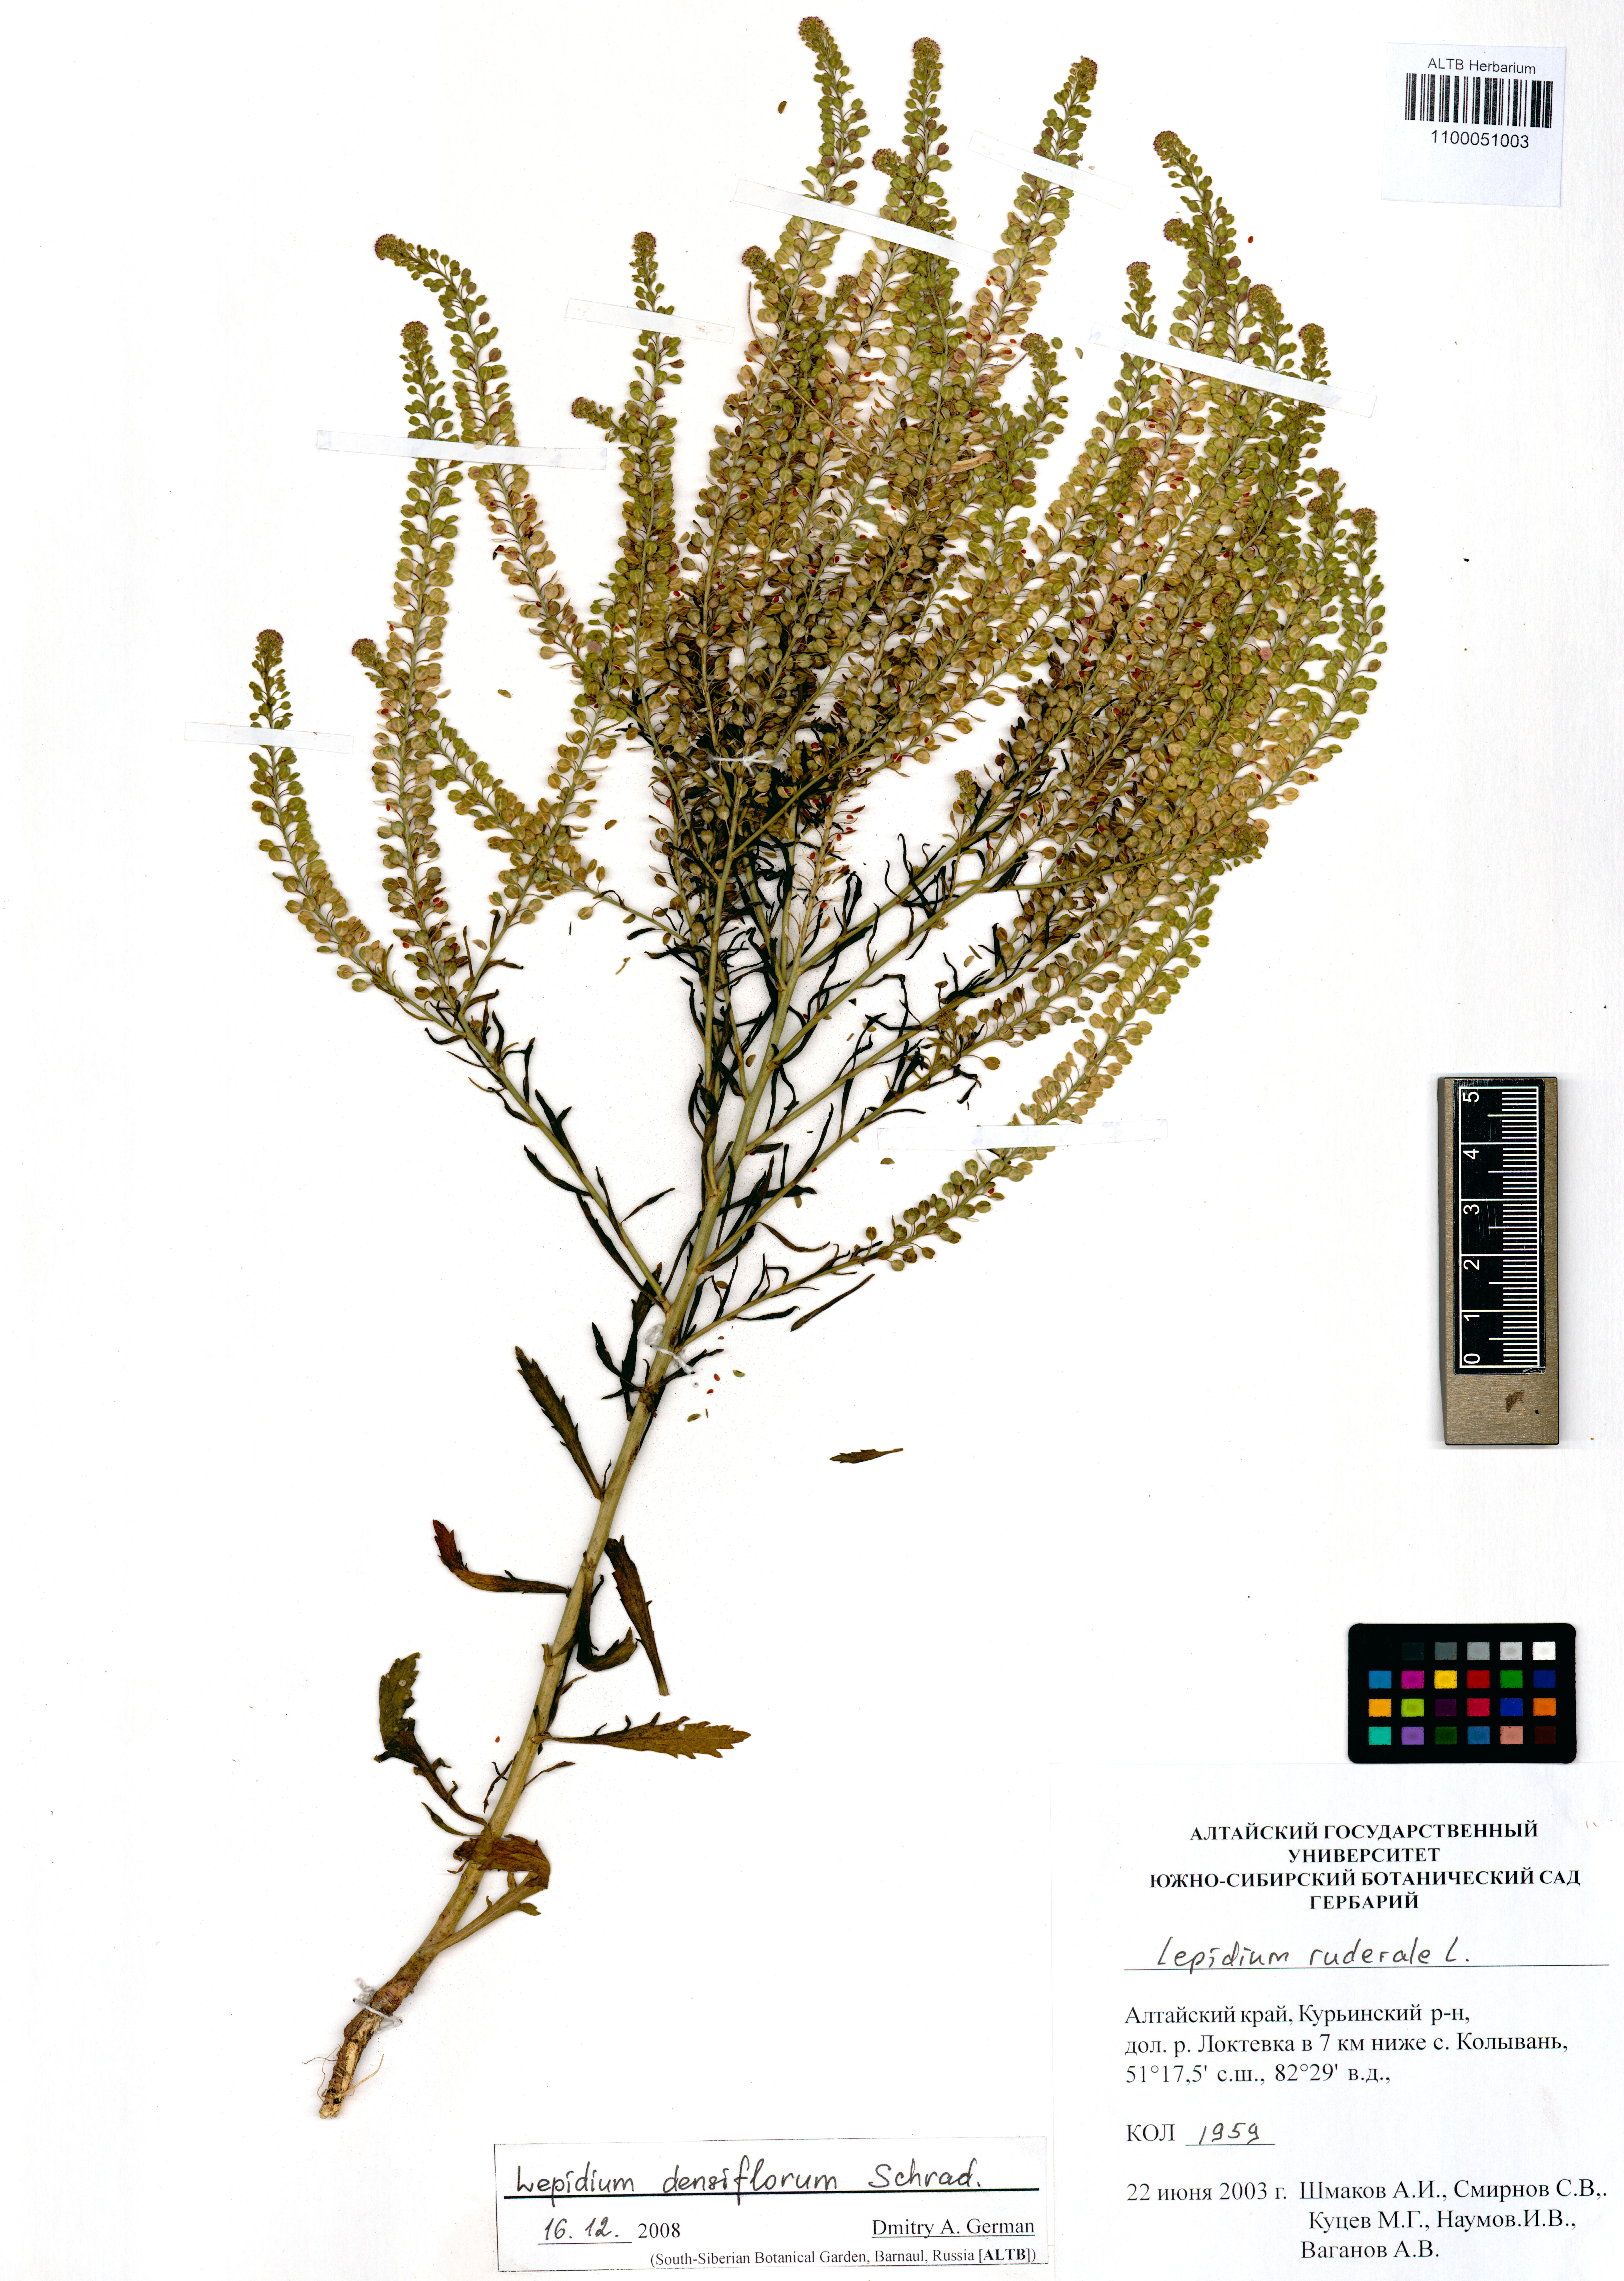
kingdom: Plantae
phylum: Tracheophyta
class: Magnoliopsida
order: Brassicales
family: Brassicaceae
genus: Lepidium
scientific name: Lepidium densiflorum
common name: Miner's pepperwort
